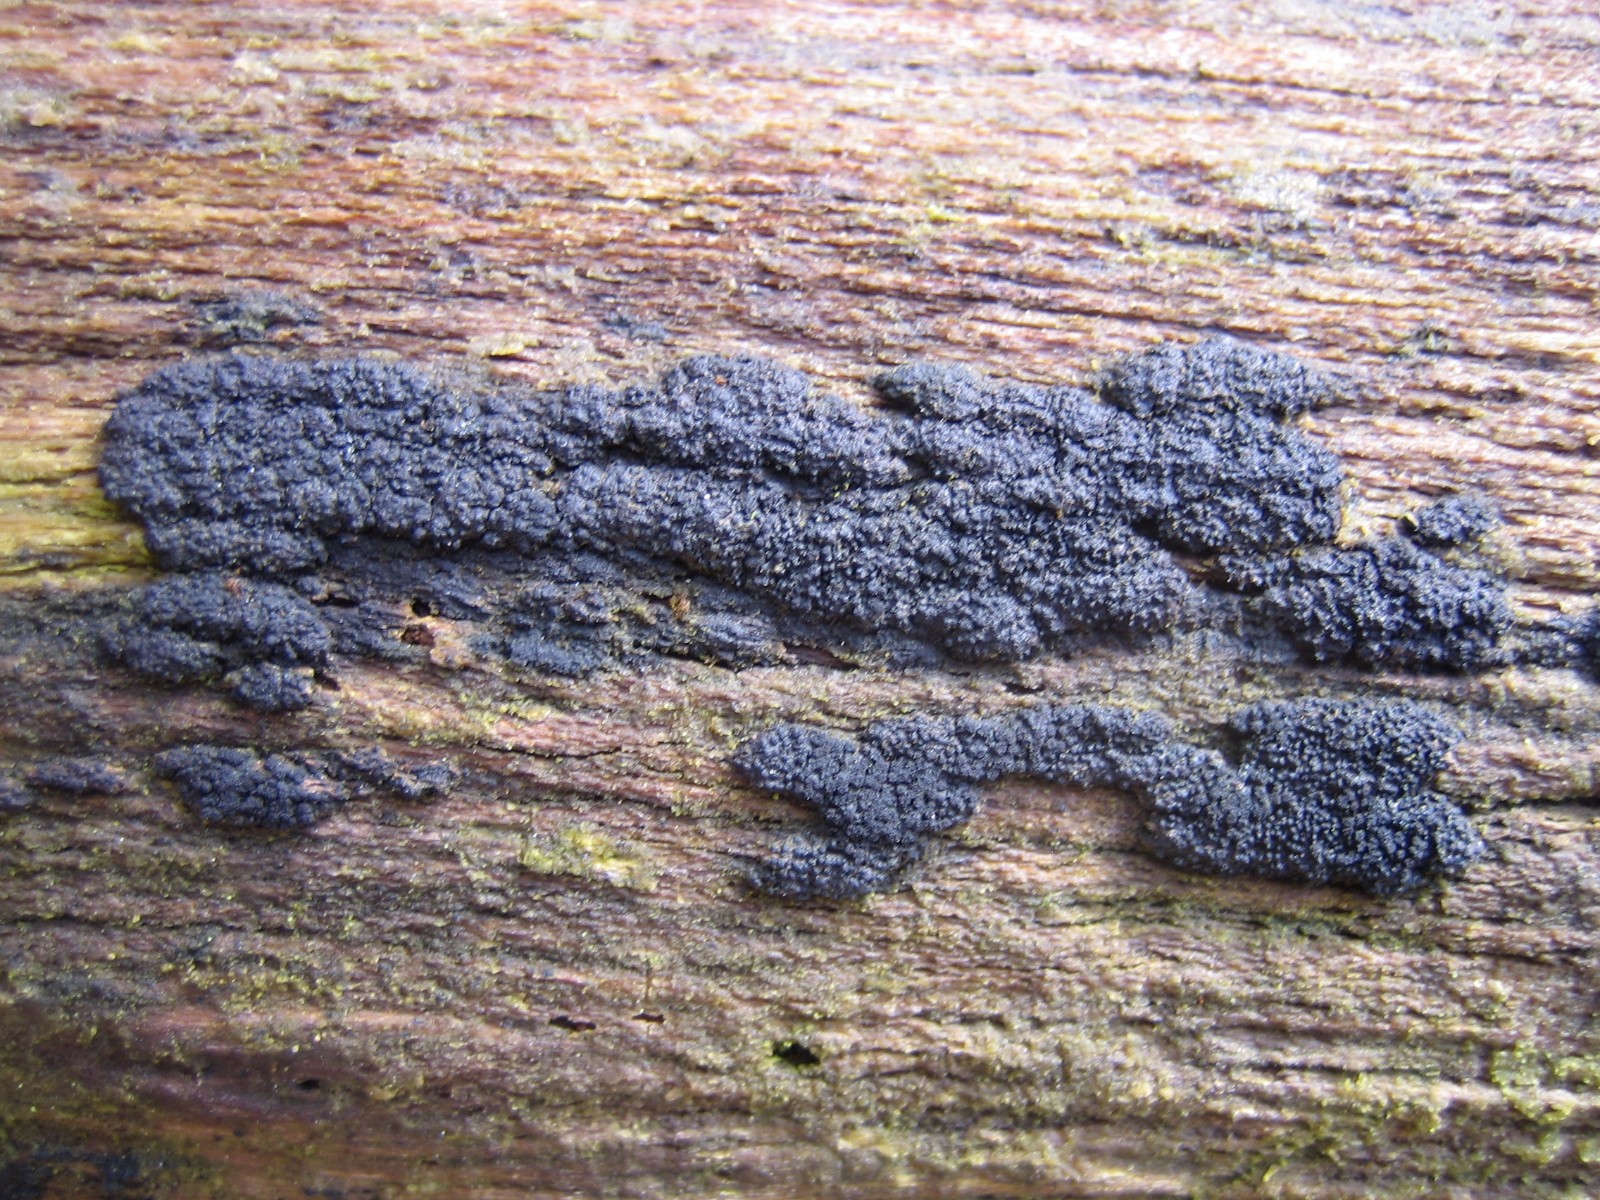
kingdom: Fungi
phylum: Ascomycota
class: Sordariomycetes
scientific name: Sordariomycetes
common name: kernesvampklassen
